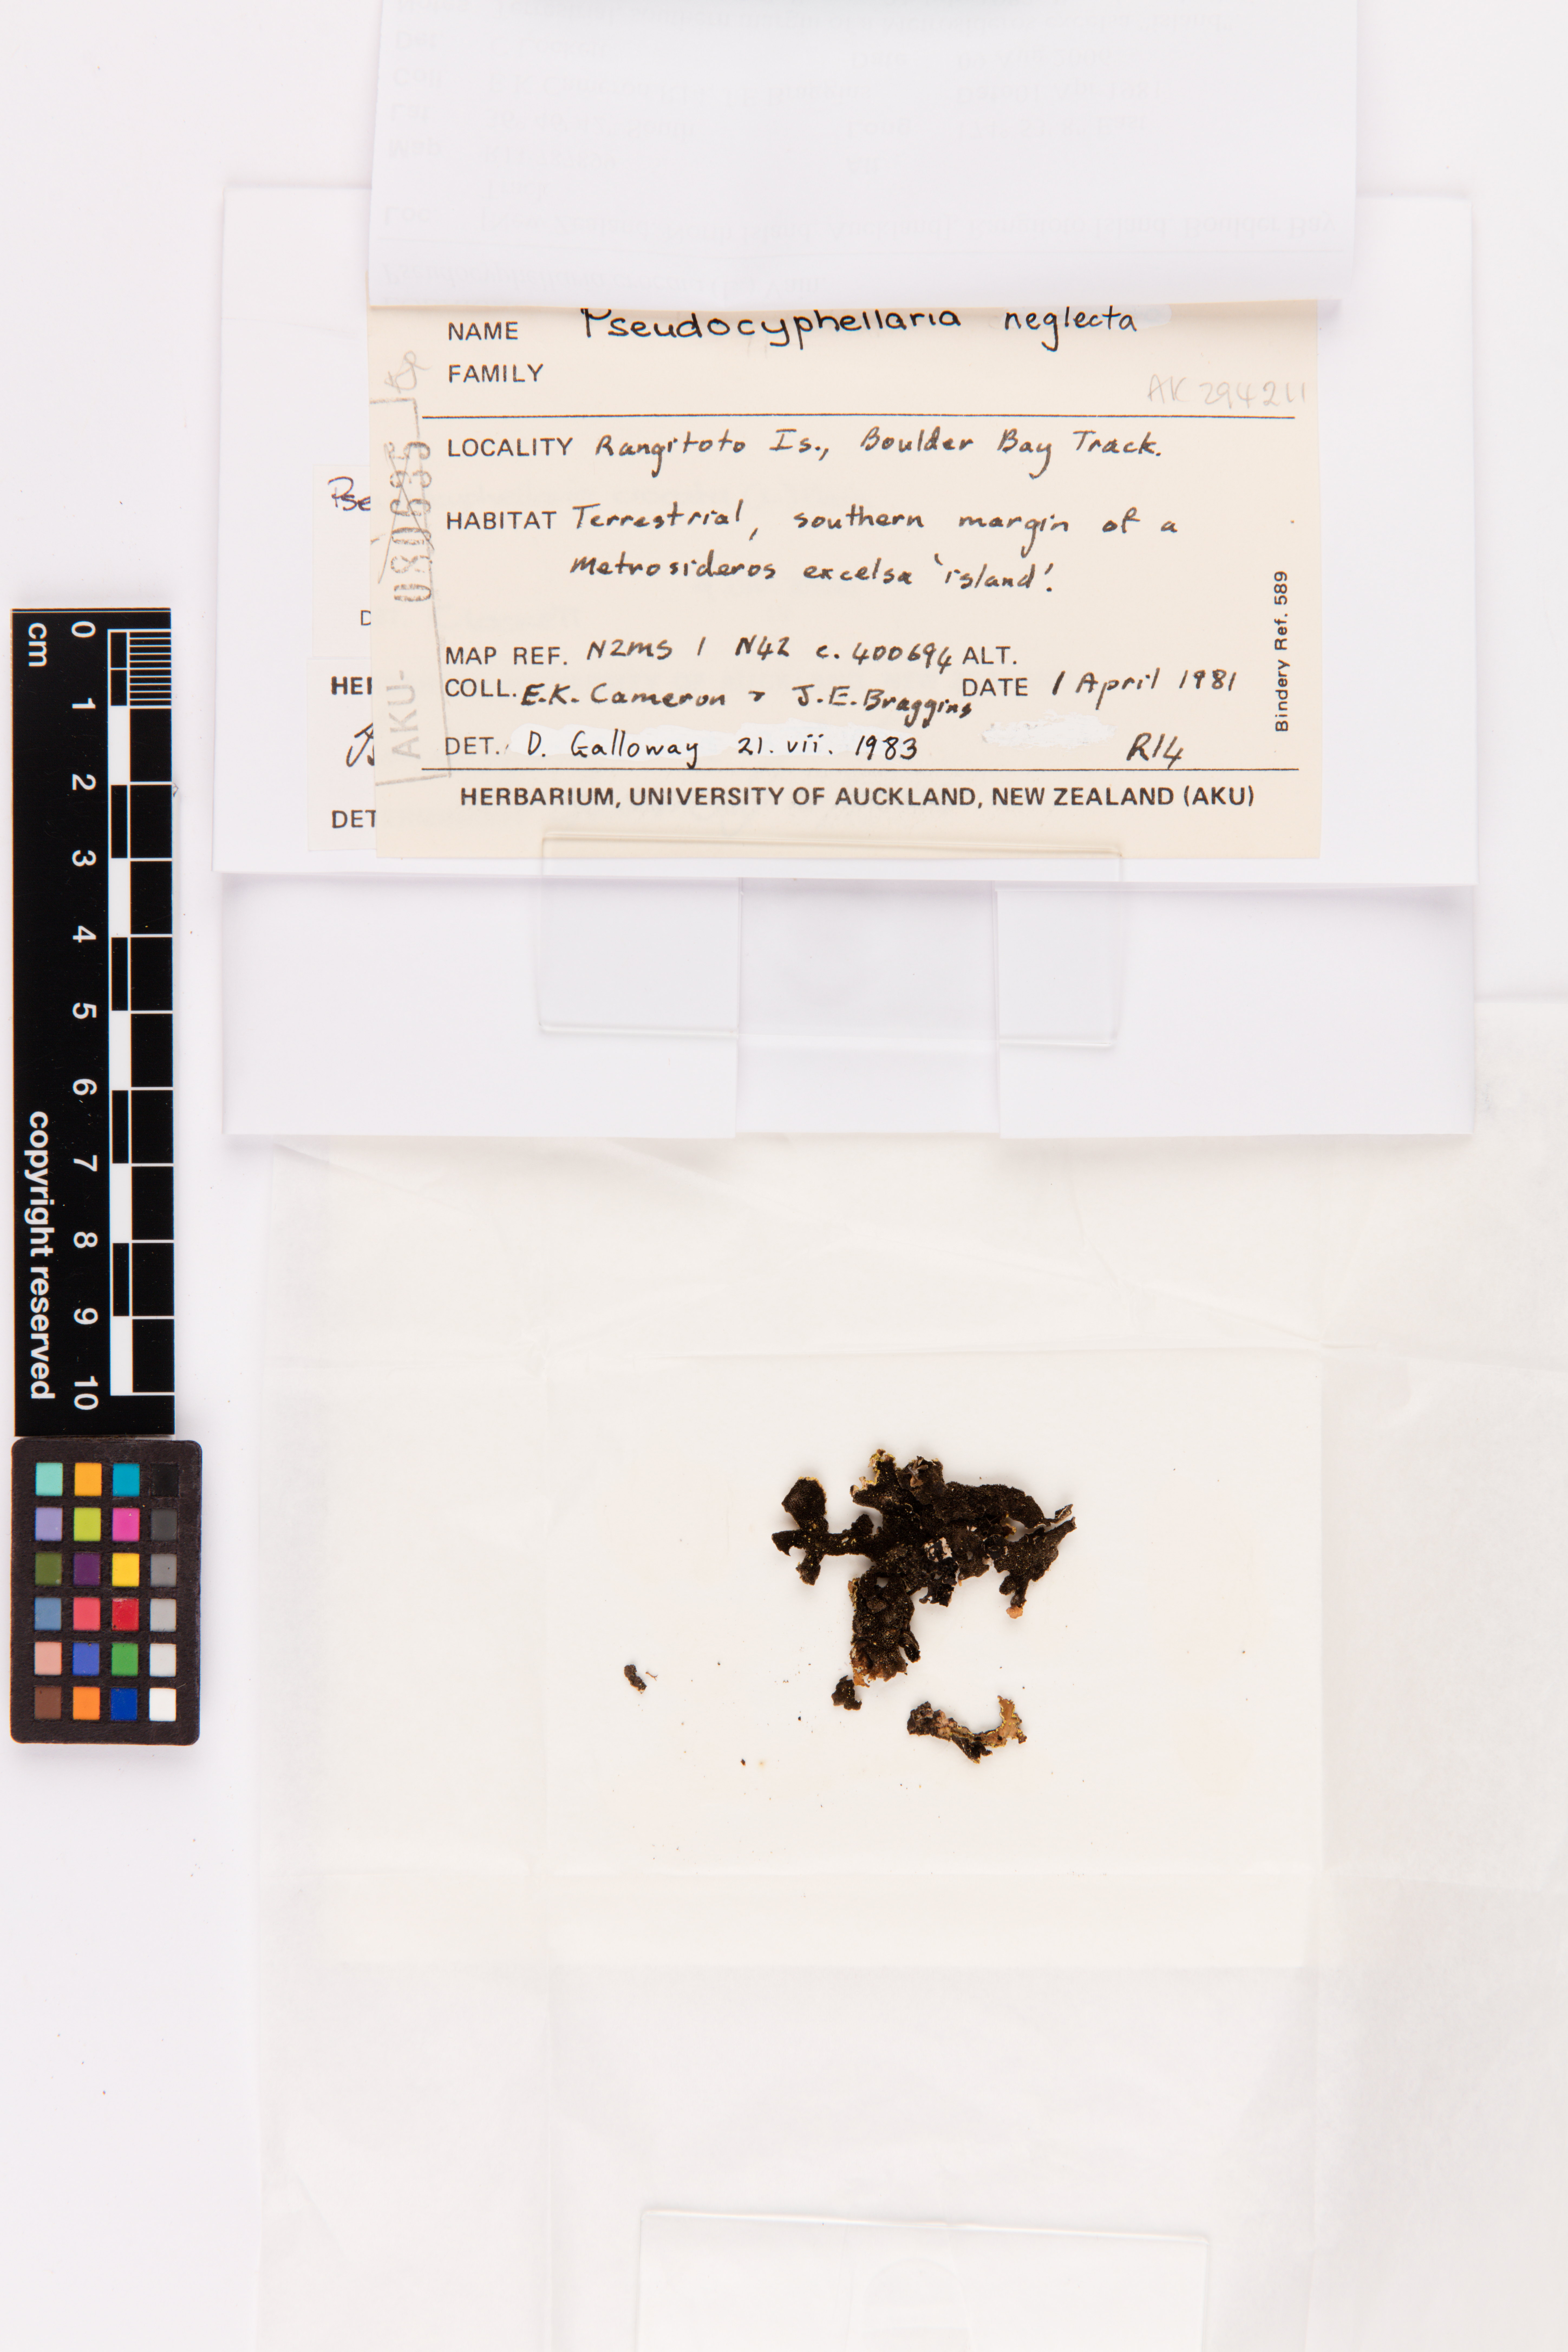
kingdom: Fungi
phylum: Ascomycota
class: Lecanoromycetes
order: Peltigerales
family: Lobariaceae
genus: Pseudocyphellaria
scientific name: Pseudocyphellaria crocata
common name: Golden specklebelly
